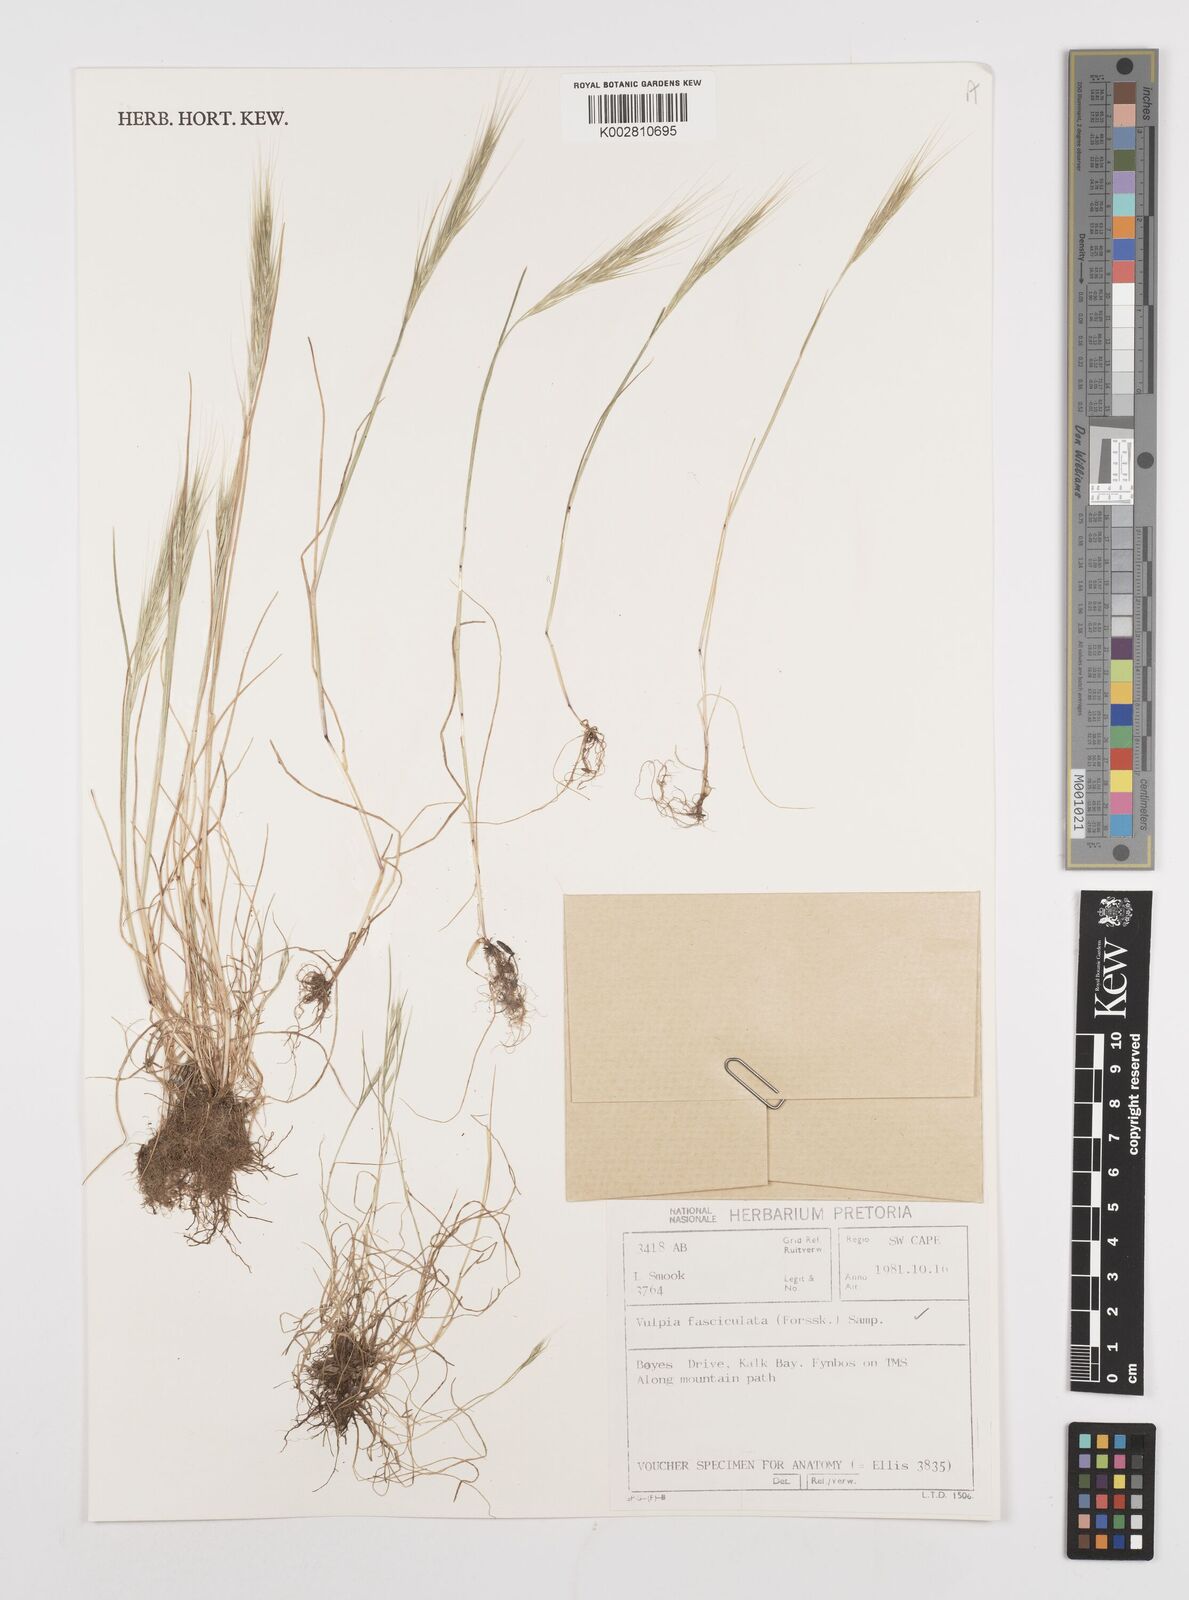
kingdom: Plantae
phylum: Tracheophyta
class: Liliopsida
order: Poales
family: Poaceae
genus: Festuca
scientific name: Festuca fasciculata
